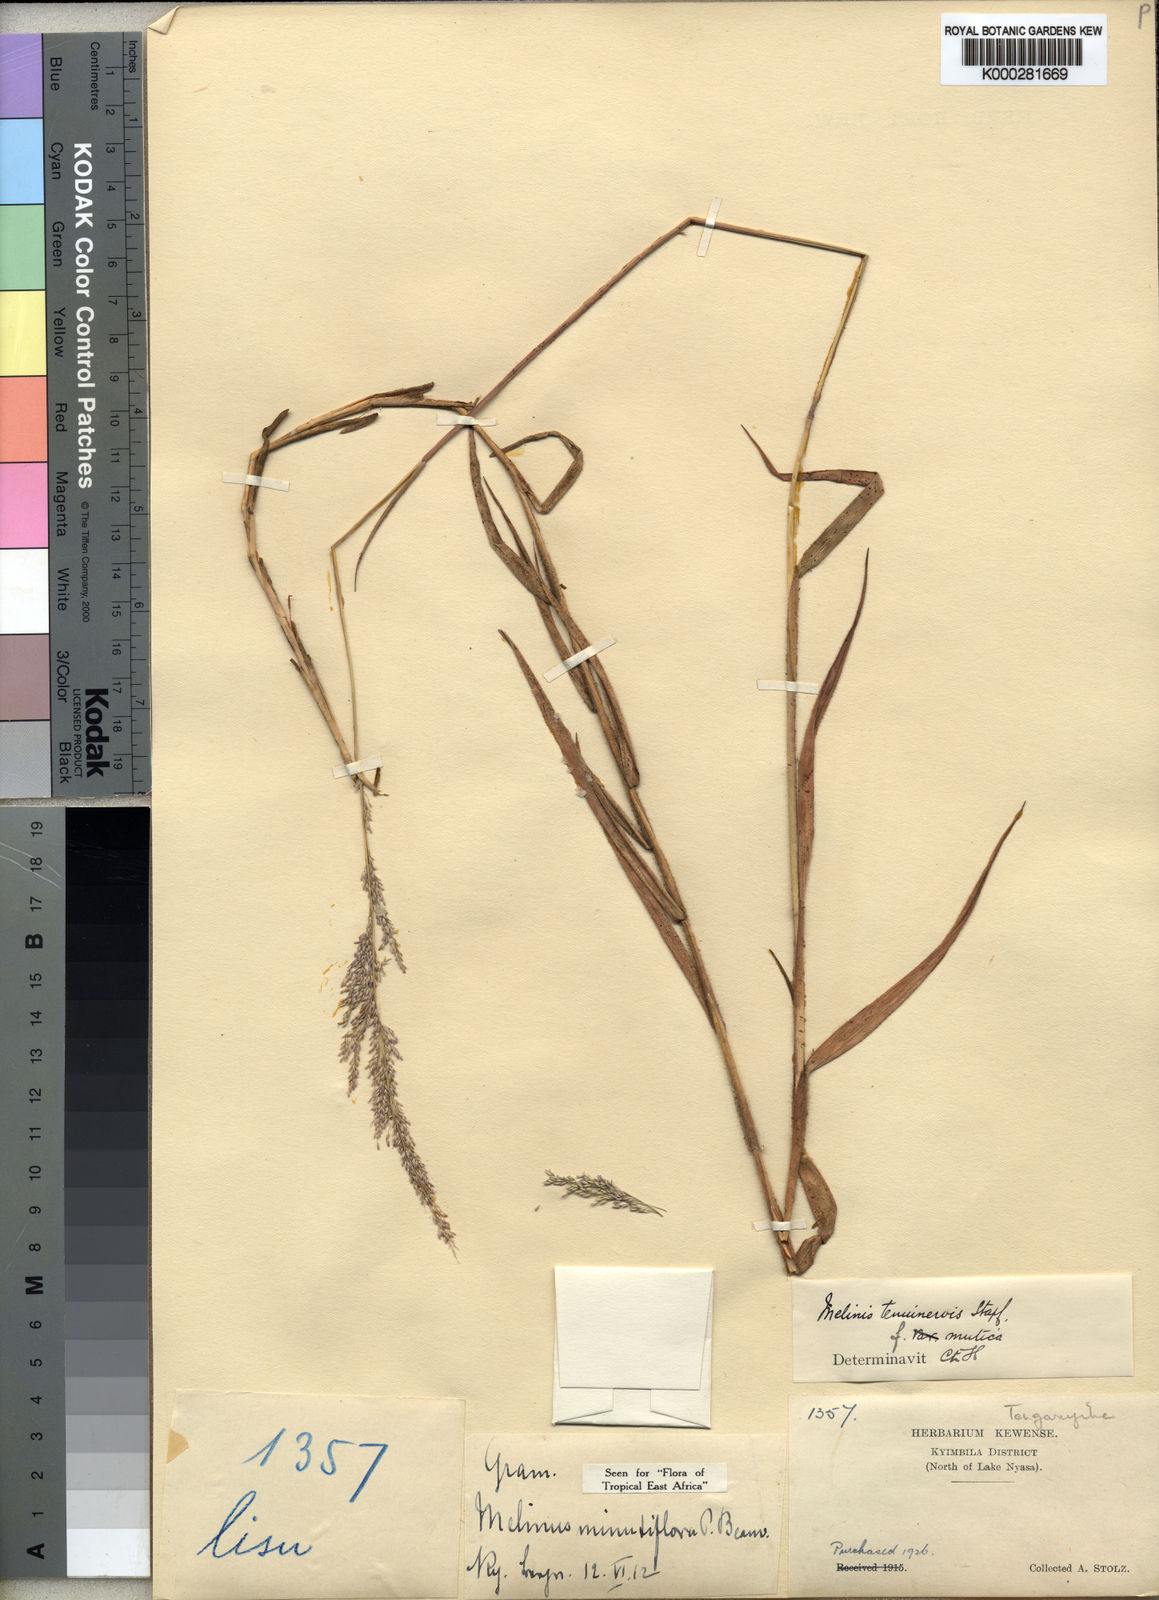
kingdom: Plantae
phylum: Tracheophyta
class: Liliopsida
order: Poales
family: Poaceae
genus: Melinis
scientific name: Melinis minutiflora
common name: Molassesgrass
